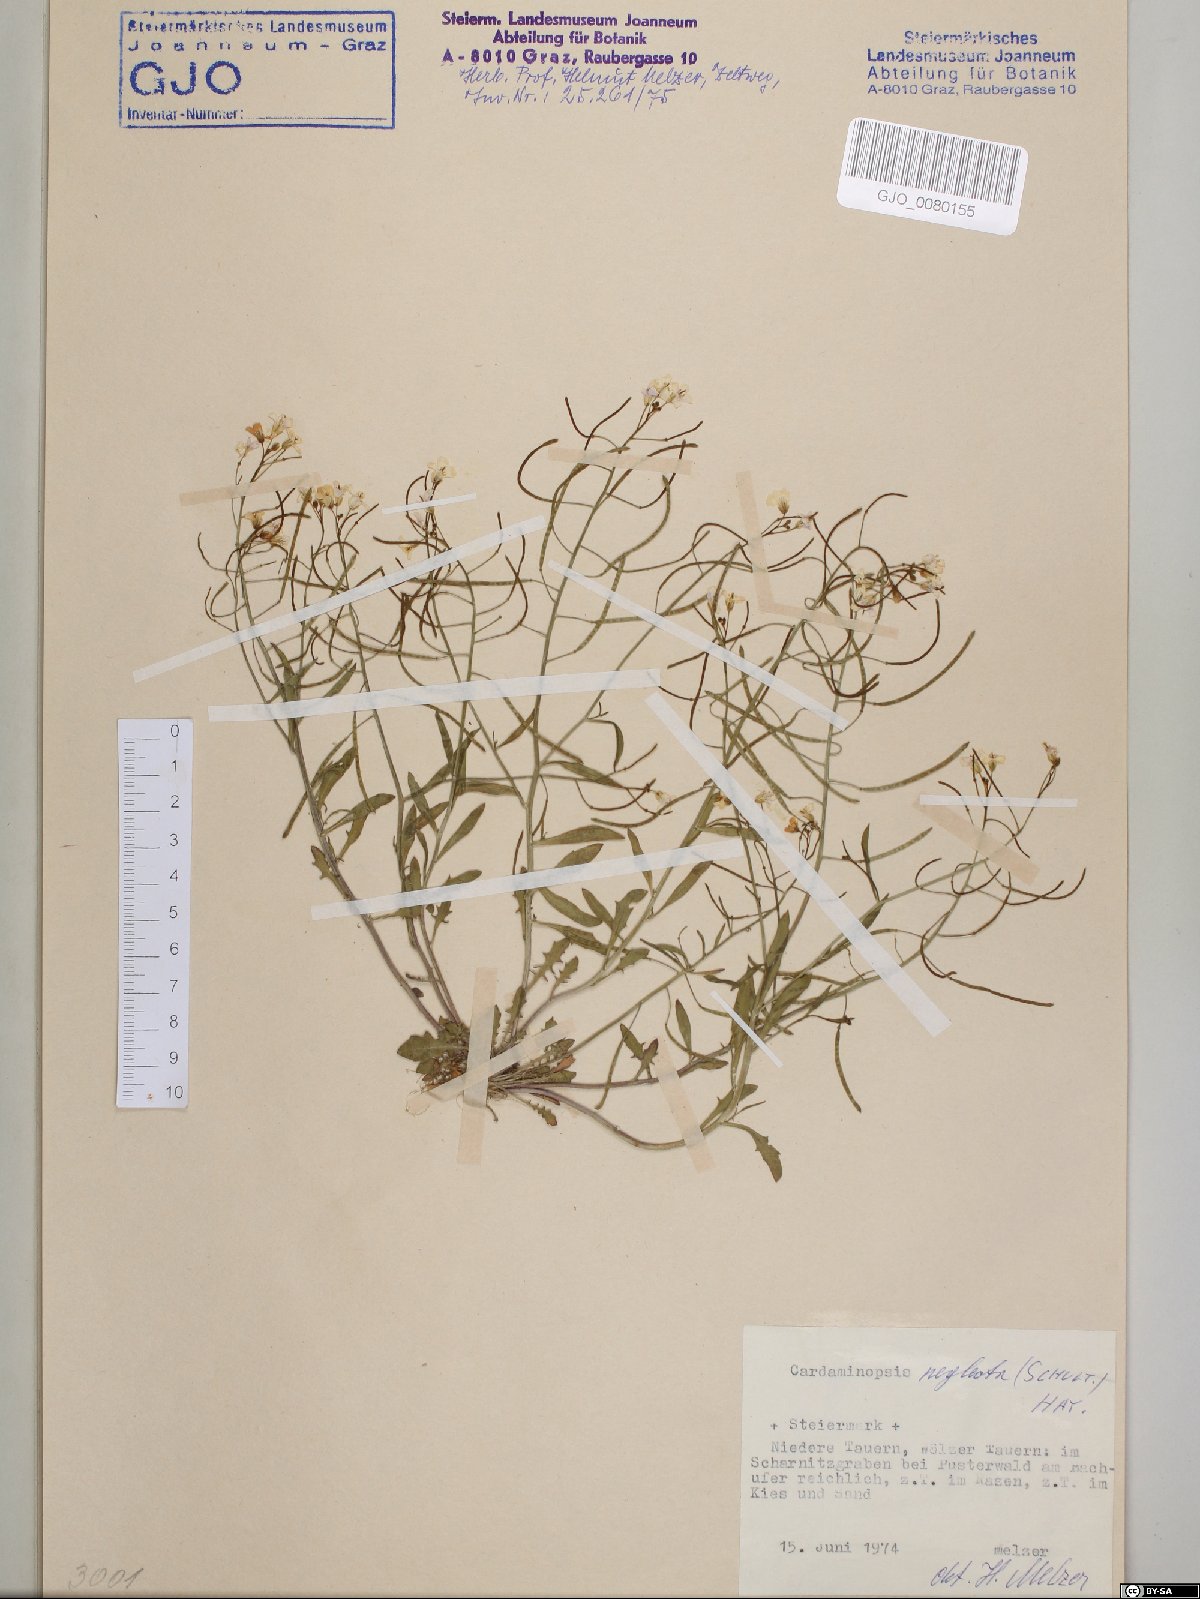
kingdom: Plantae
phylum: Tracheophyta
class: Magnoliopsida
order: Brassicales
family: Brassicaceae
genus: Arabidopsis
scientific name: Arabidopsis neglecta
